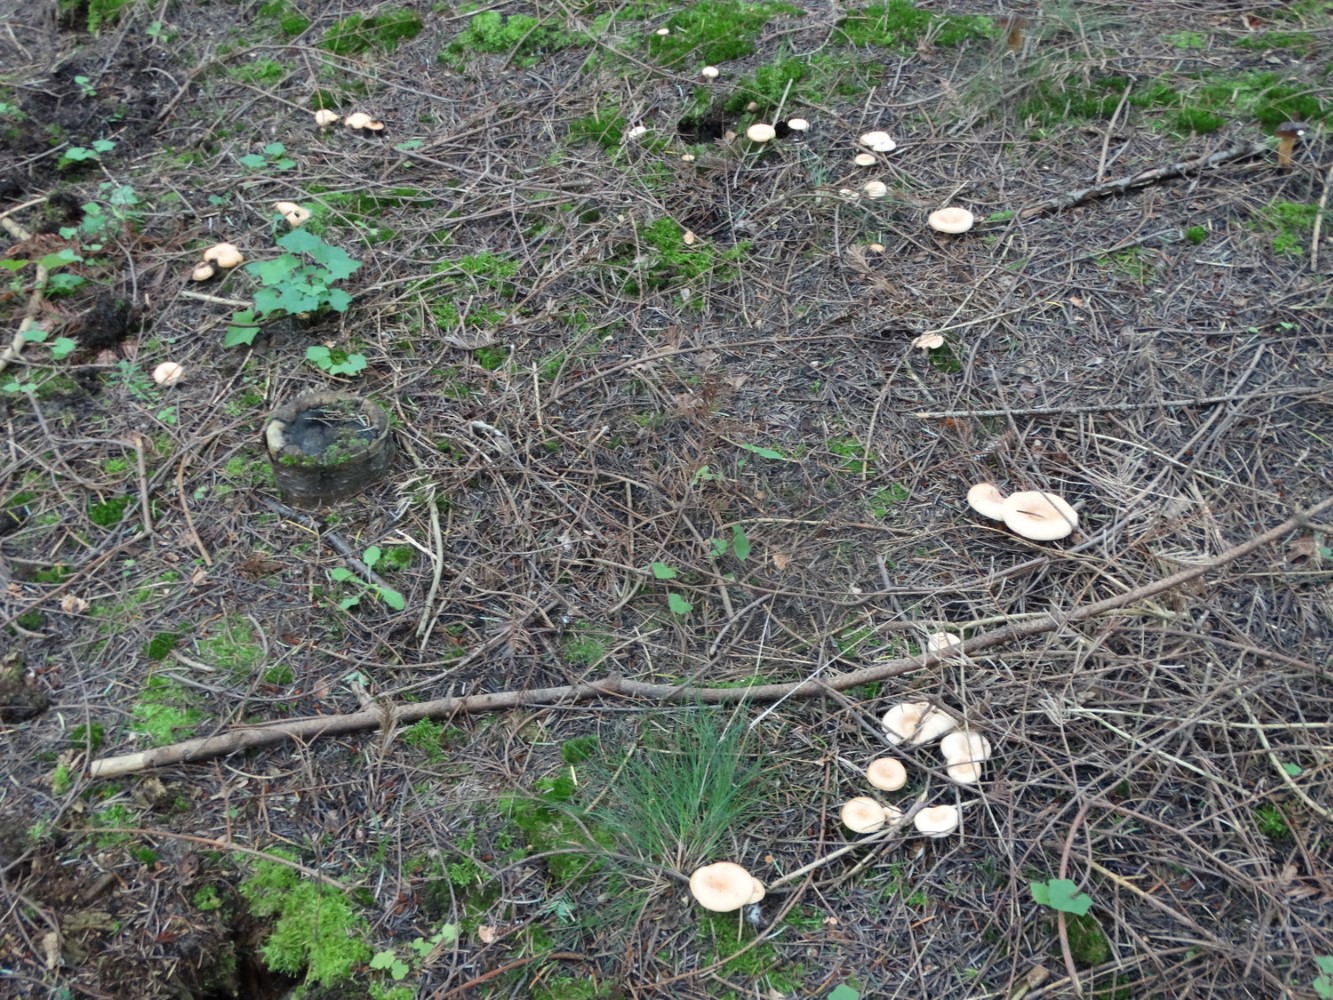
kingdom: Fungi
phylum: Basidiomycota
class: Agaricomycetes
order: Agaricales
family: Tricholomataceae
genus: Paralepista
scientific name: Paralepista flaccida
